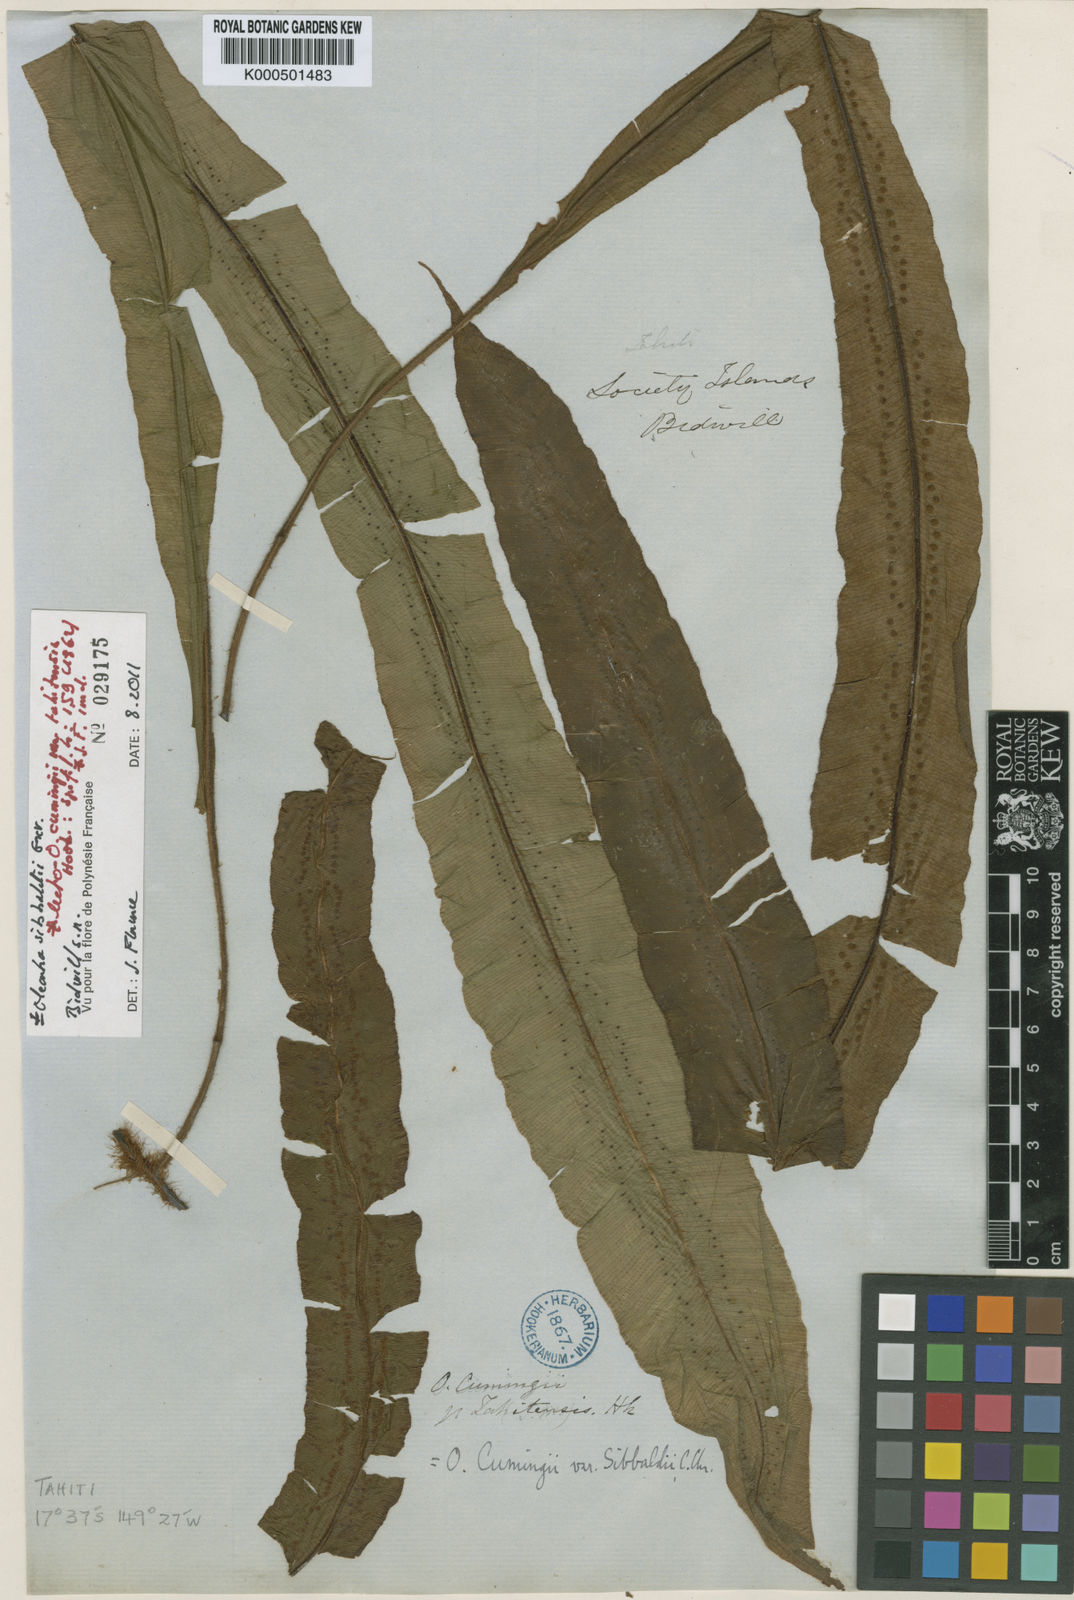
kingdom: Plantae
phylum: Tracheophyta
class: Polypodiopsida
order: Polypodiales
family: Oleandraceae
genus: Oleandra
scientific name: Oleandra sibbaldii
